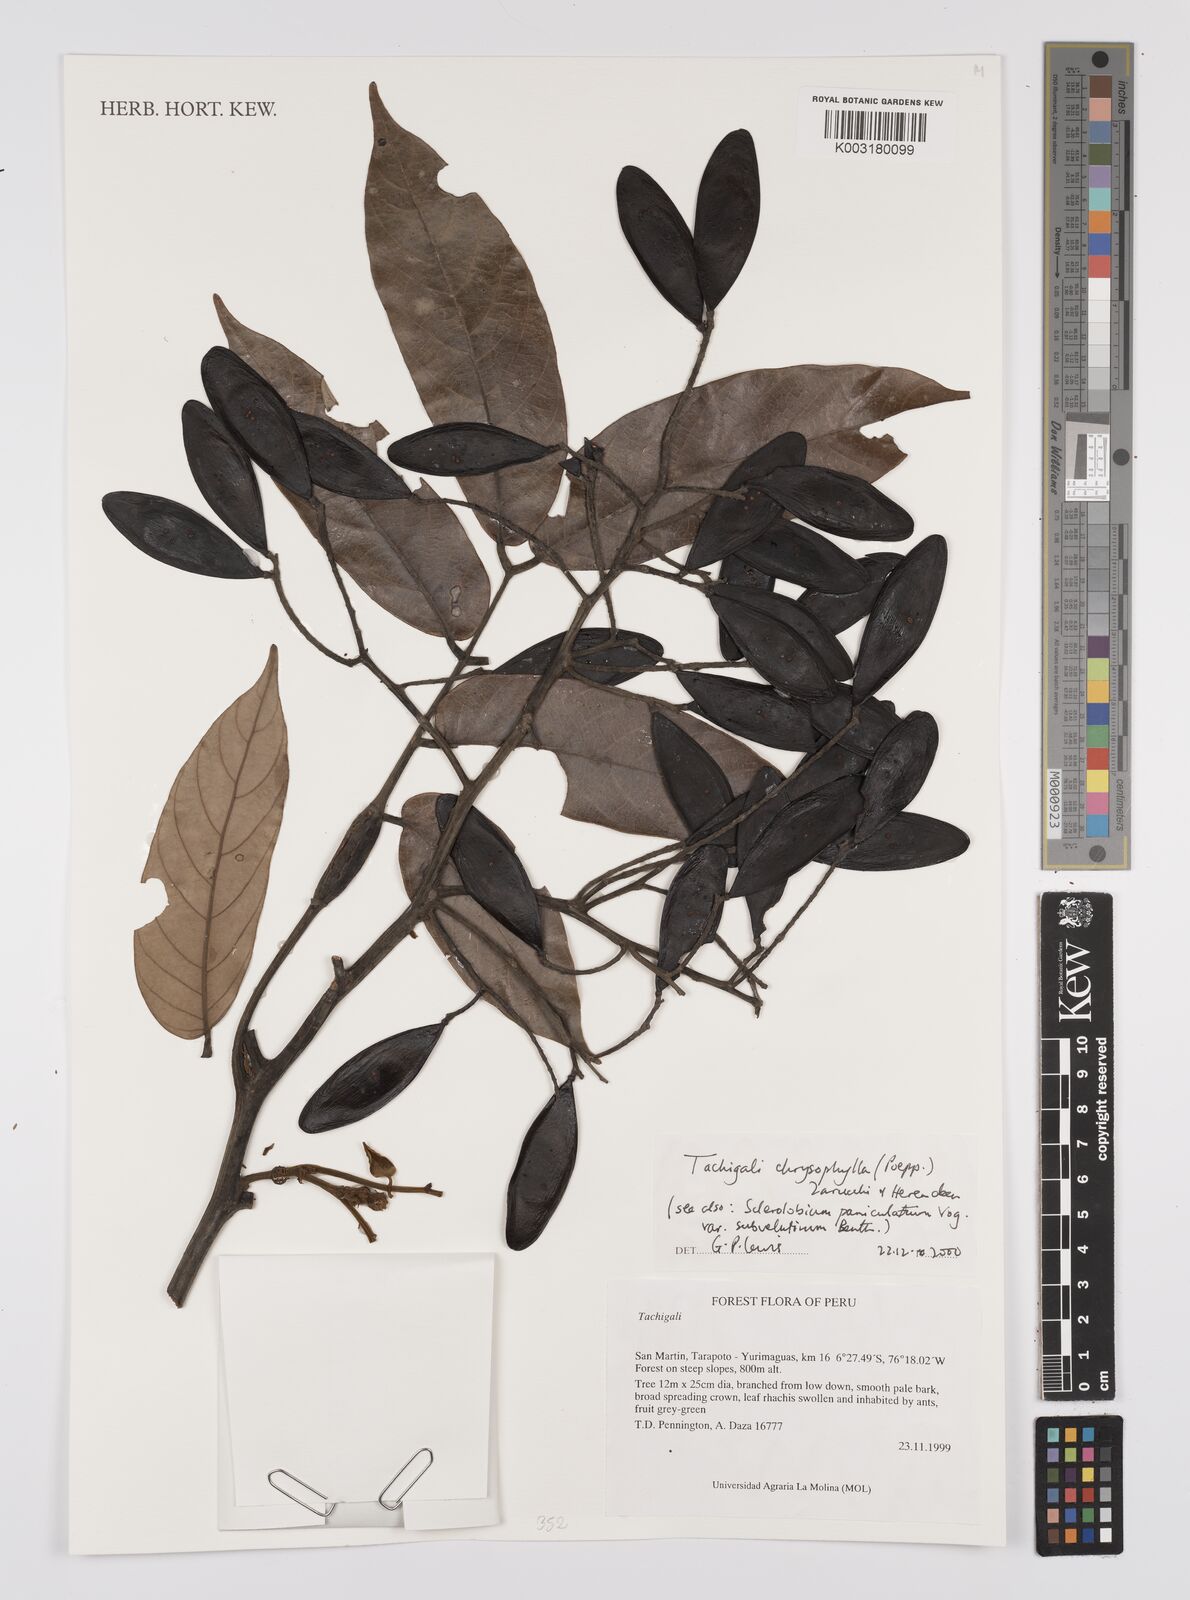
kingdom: Plantae
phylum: Tracheophyta
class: Magnoliopsida
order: Fabales
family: Fabaceae
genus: Tachigali
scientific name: Tachigali chrysophylla
